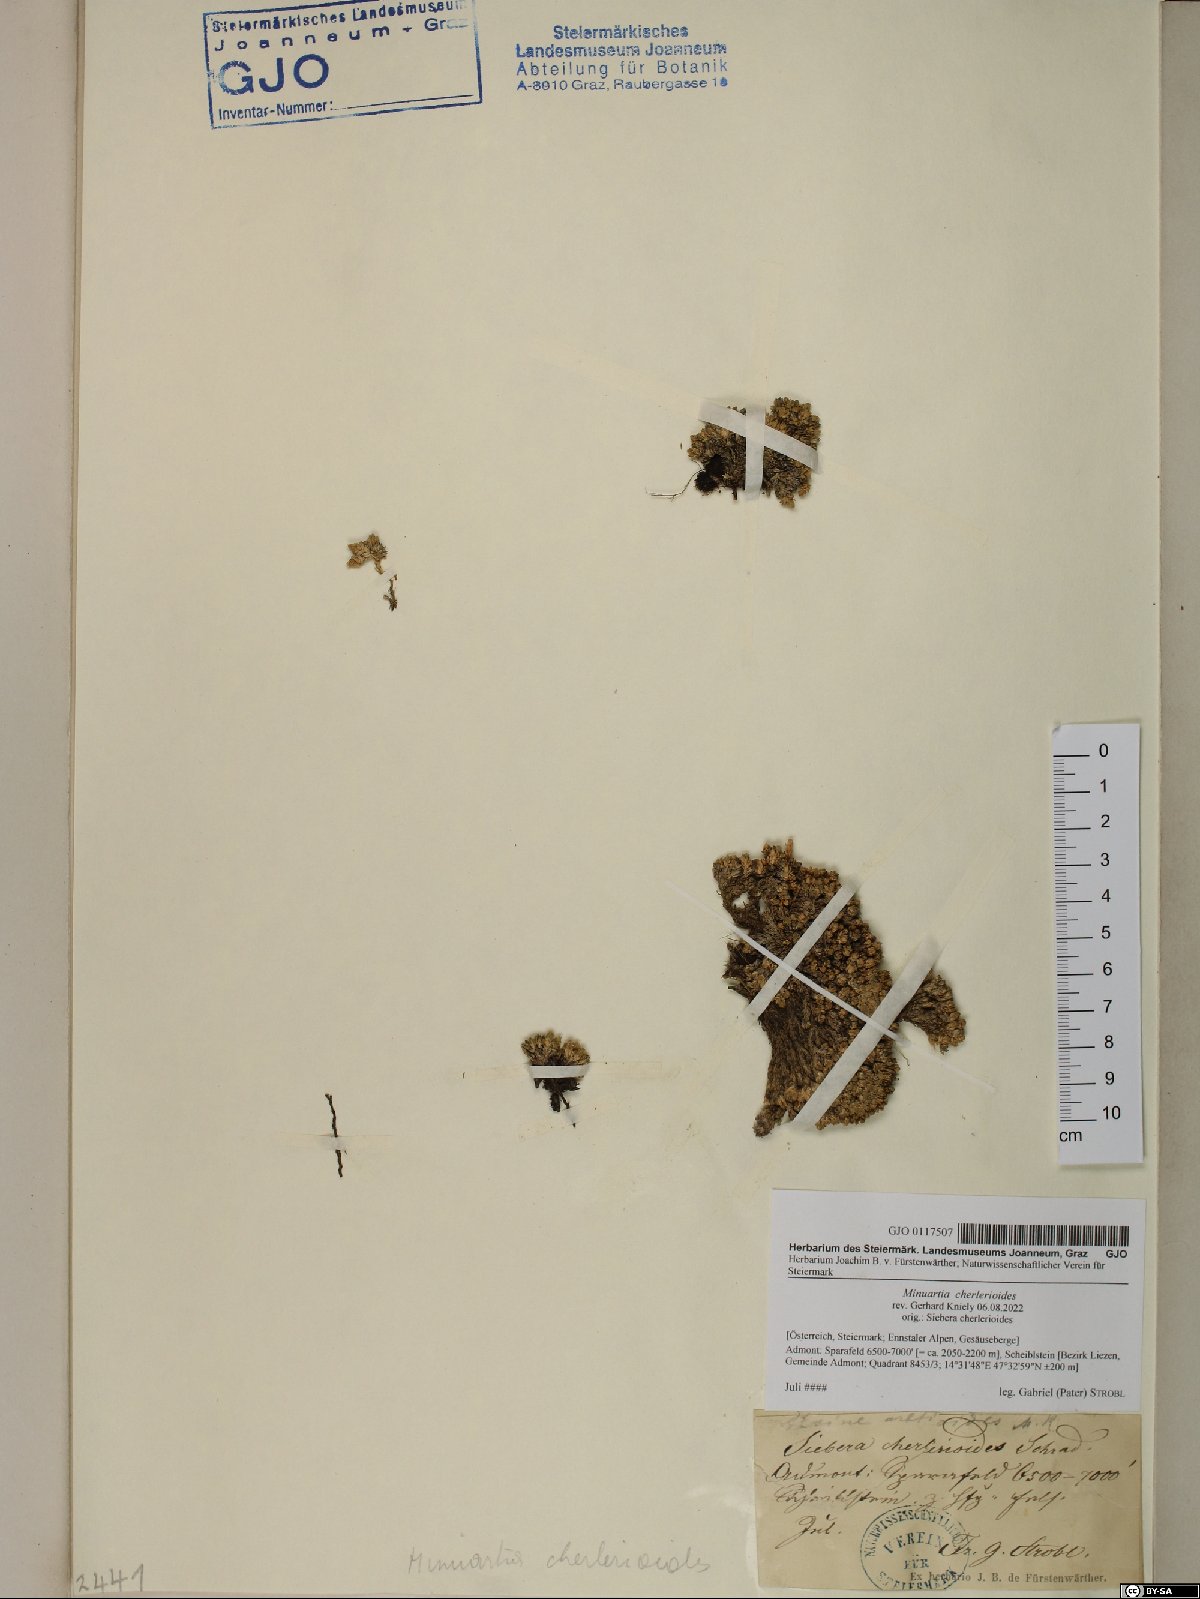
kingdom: Plantae
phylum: Tracheophyta
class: Magnoliopsida
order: Caryophyllales
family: Caryophyllaceae
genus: Facchinia
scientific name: Facchinia cherlerioides
